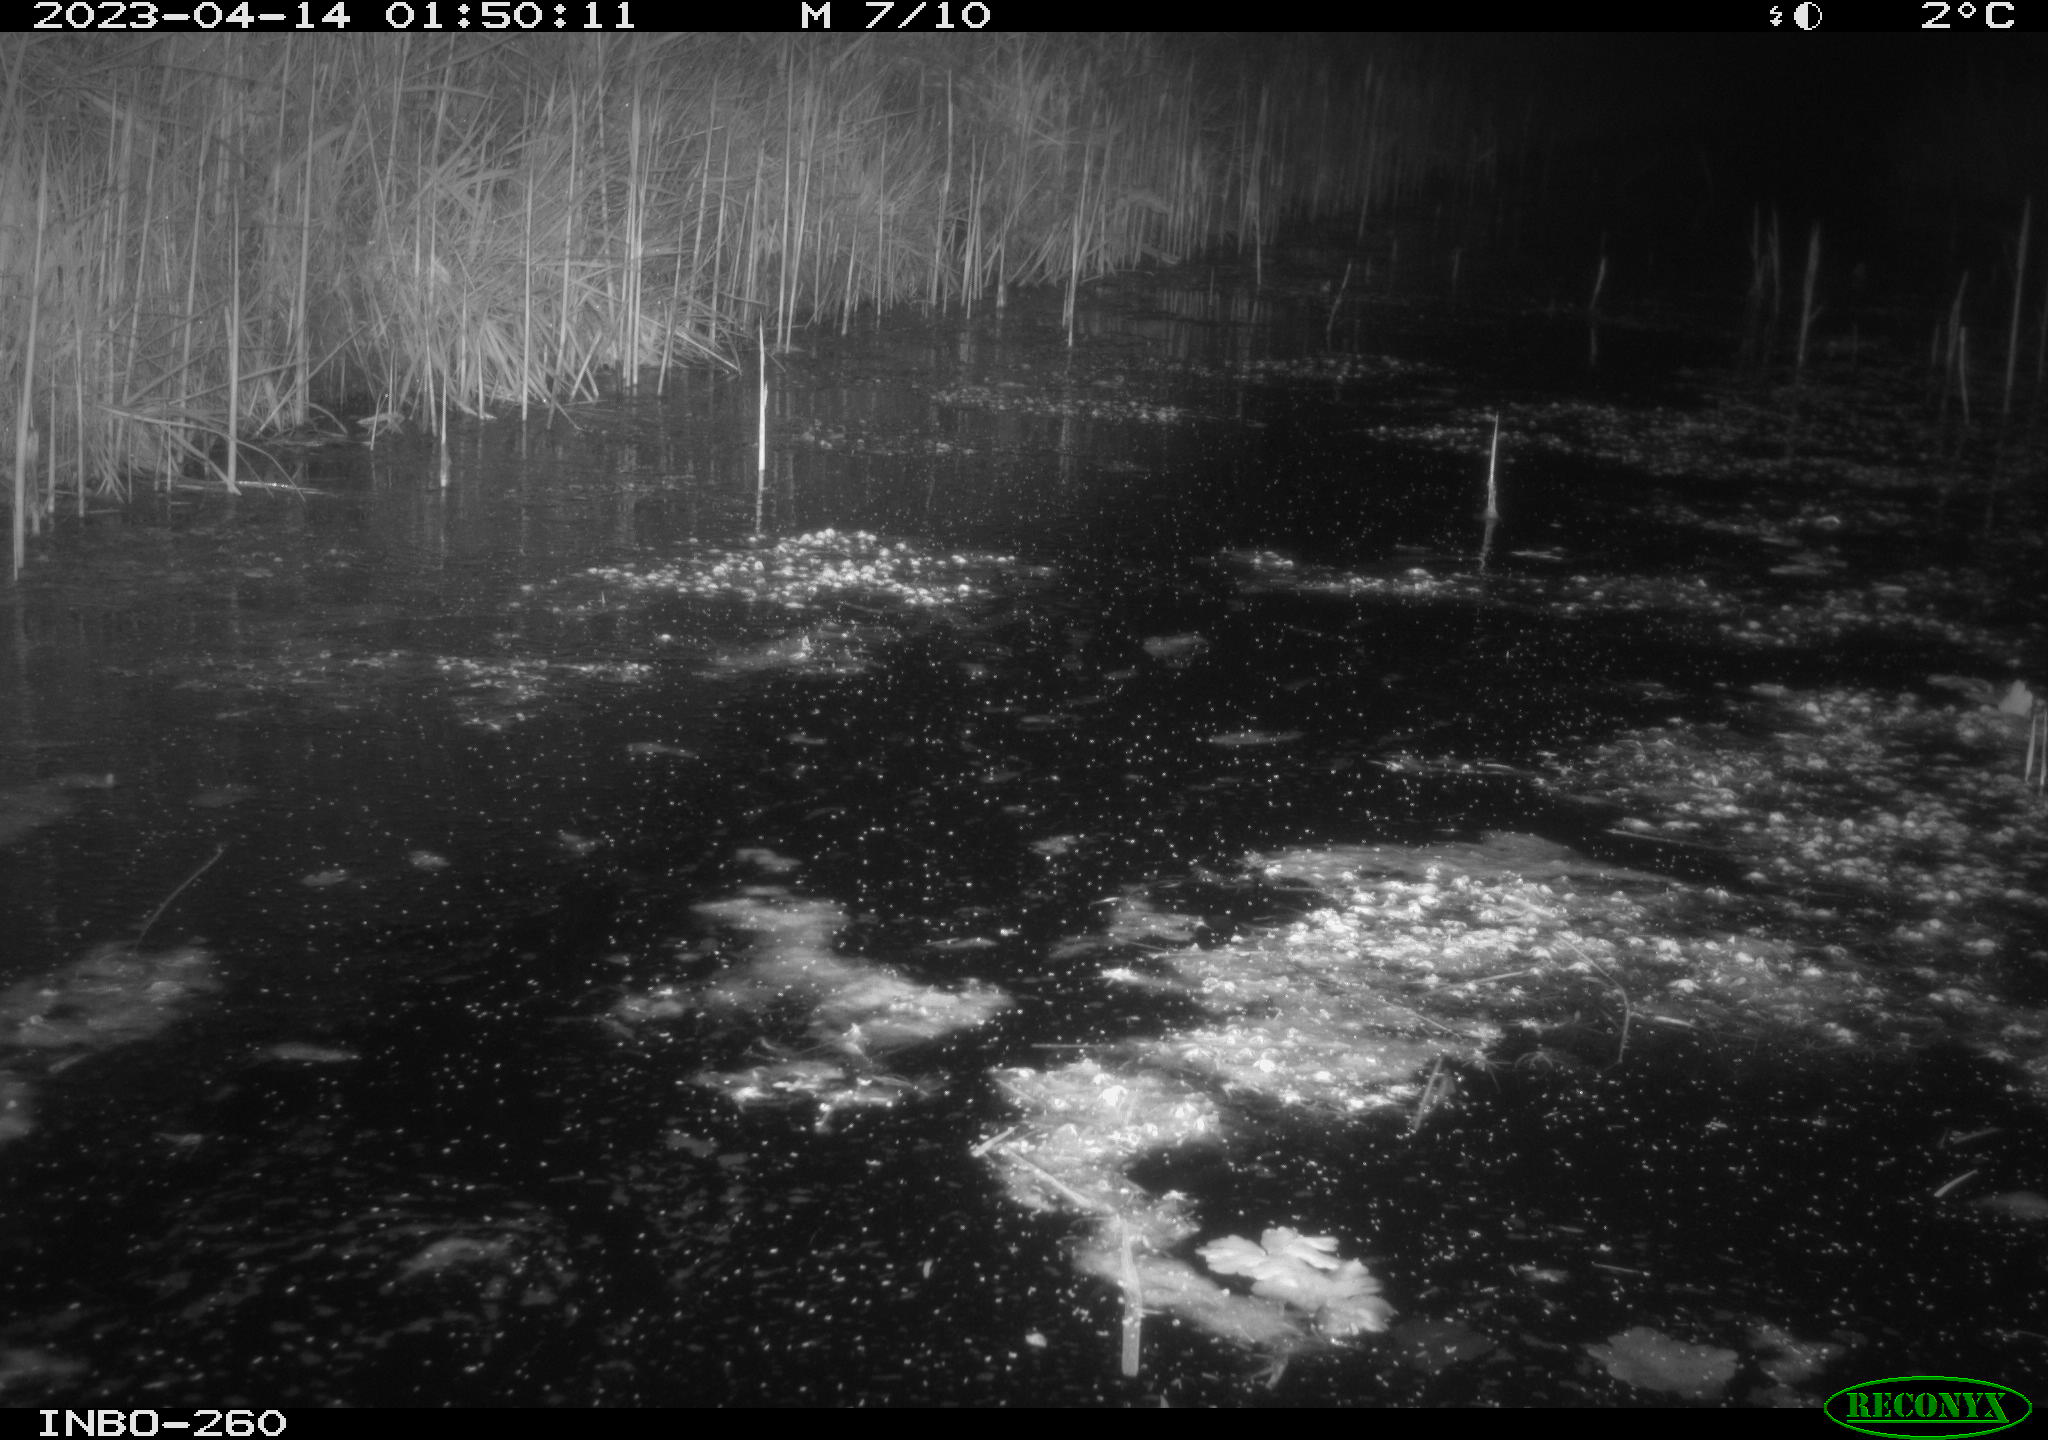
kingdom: Animalia
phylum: Chordata
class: Mammalia
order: Rodentia
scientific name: Rodentia
